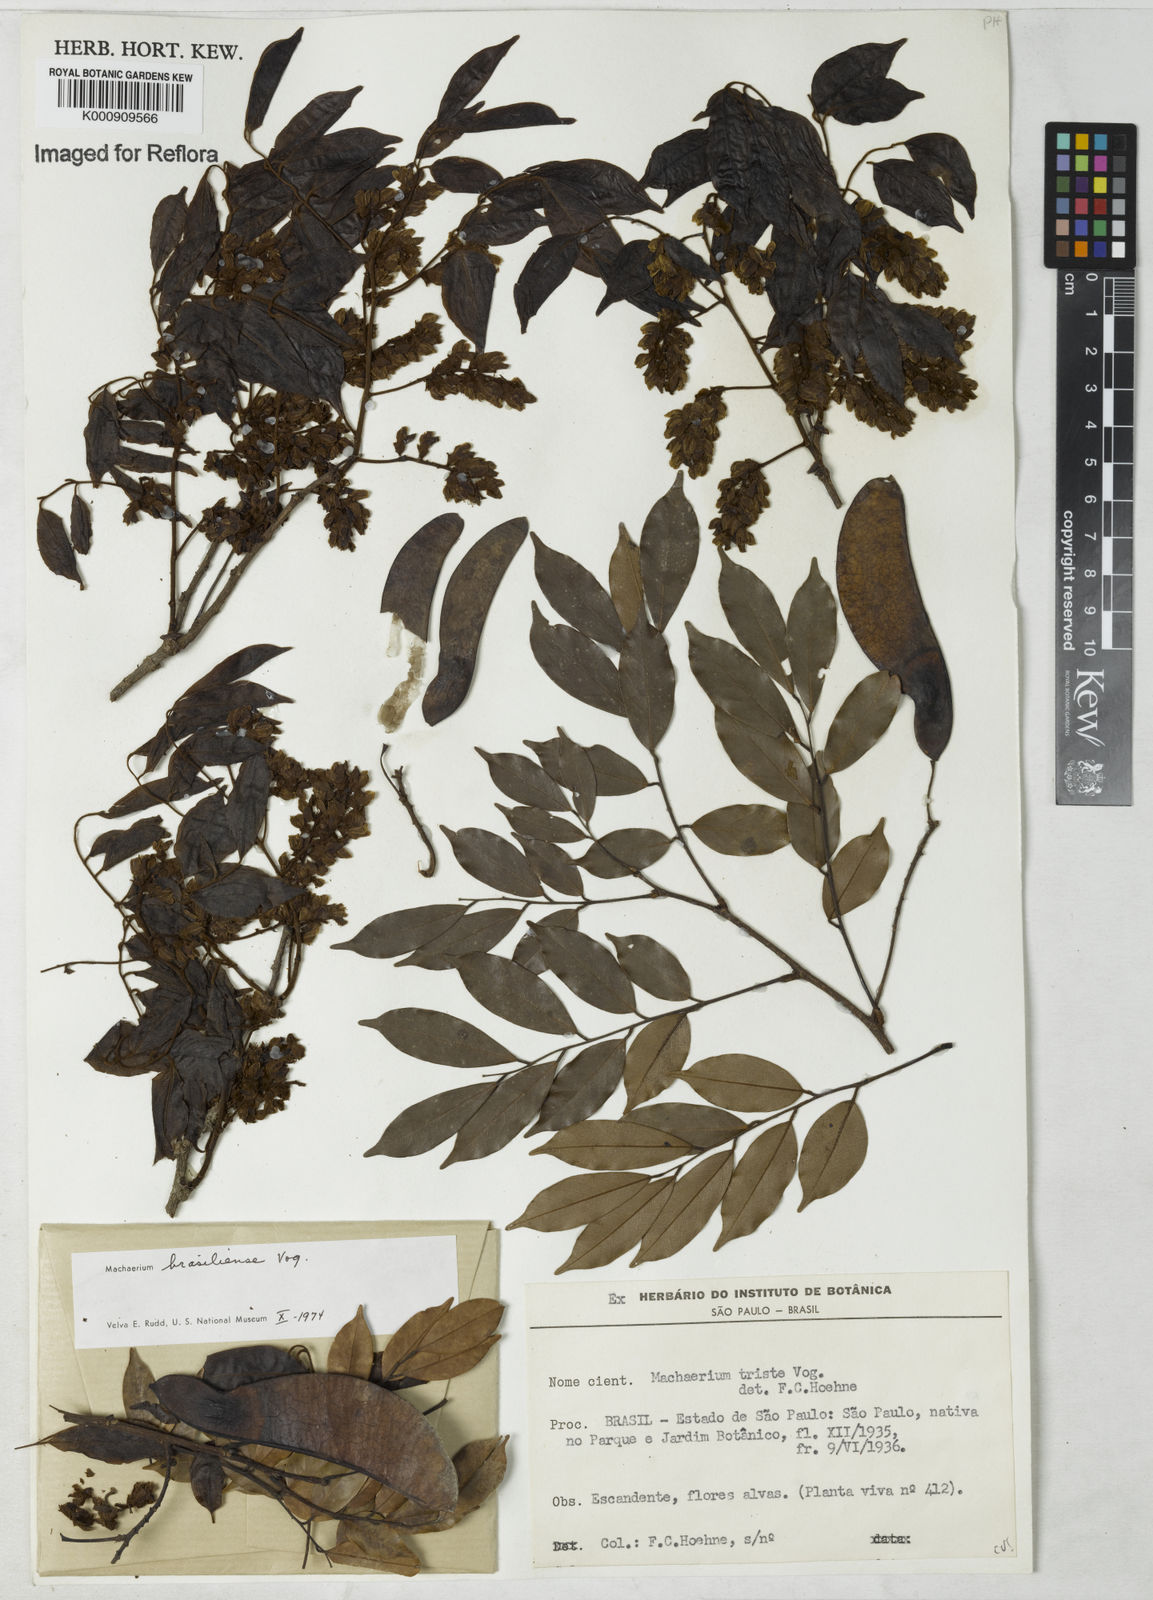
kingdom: Plantae
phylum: Tracheophyta
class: Magnoliopsida
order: Fabales
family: Fabaceae
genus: Machaerium
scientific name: Machaerium brasiliense
